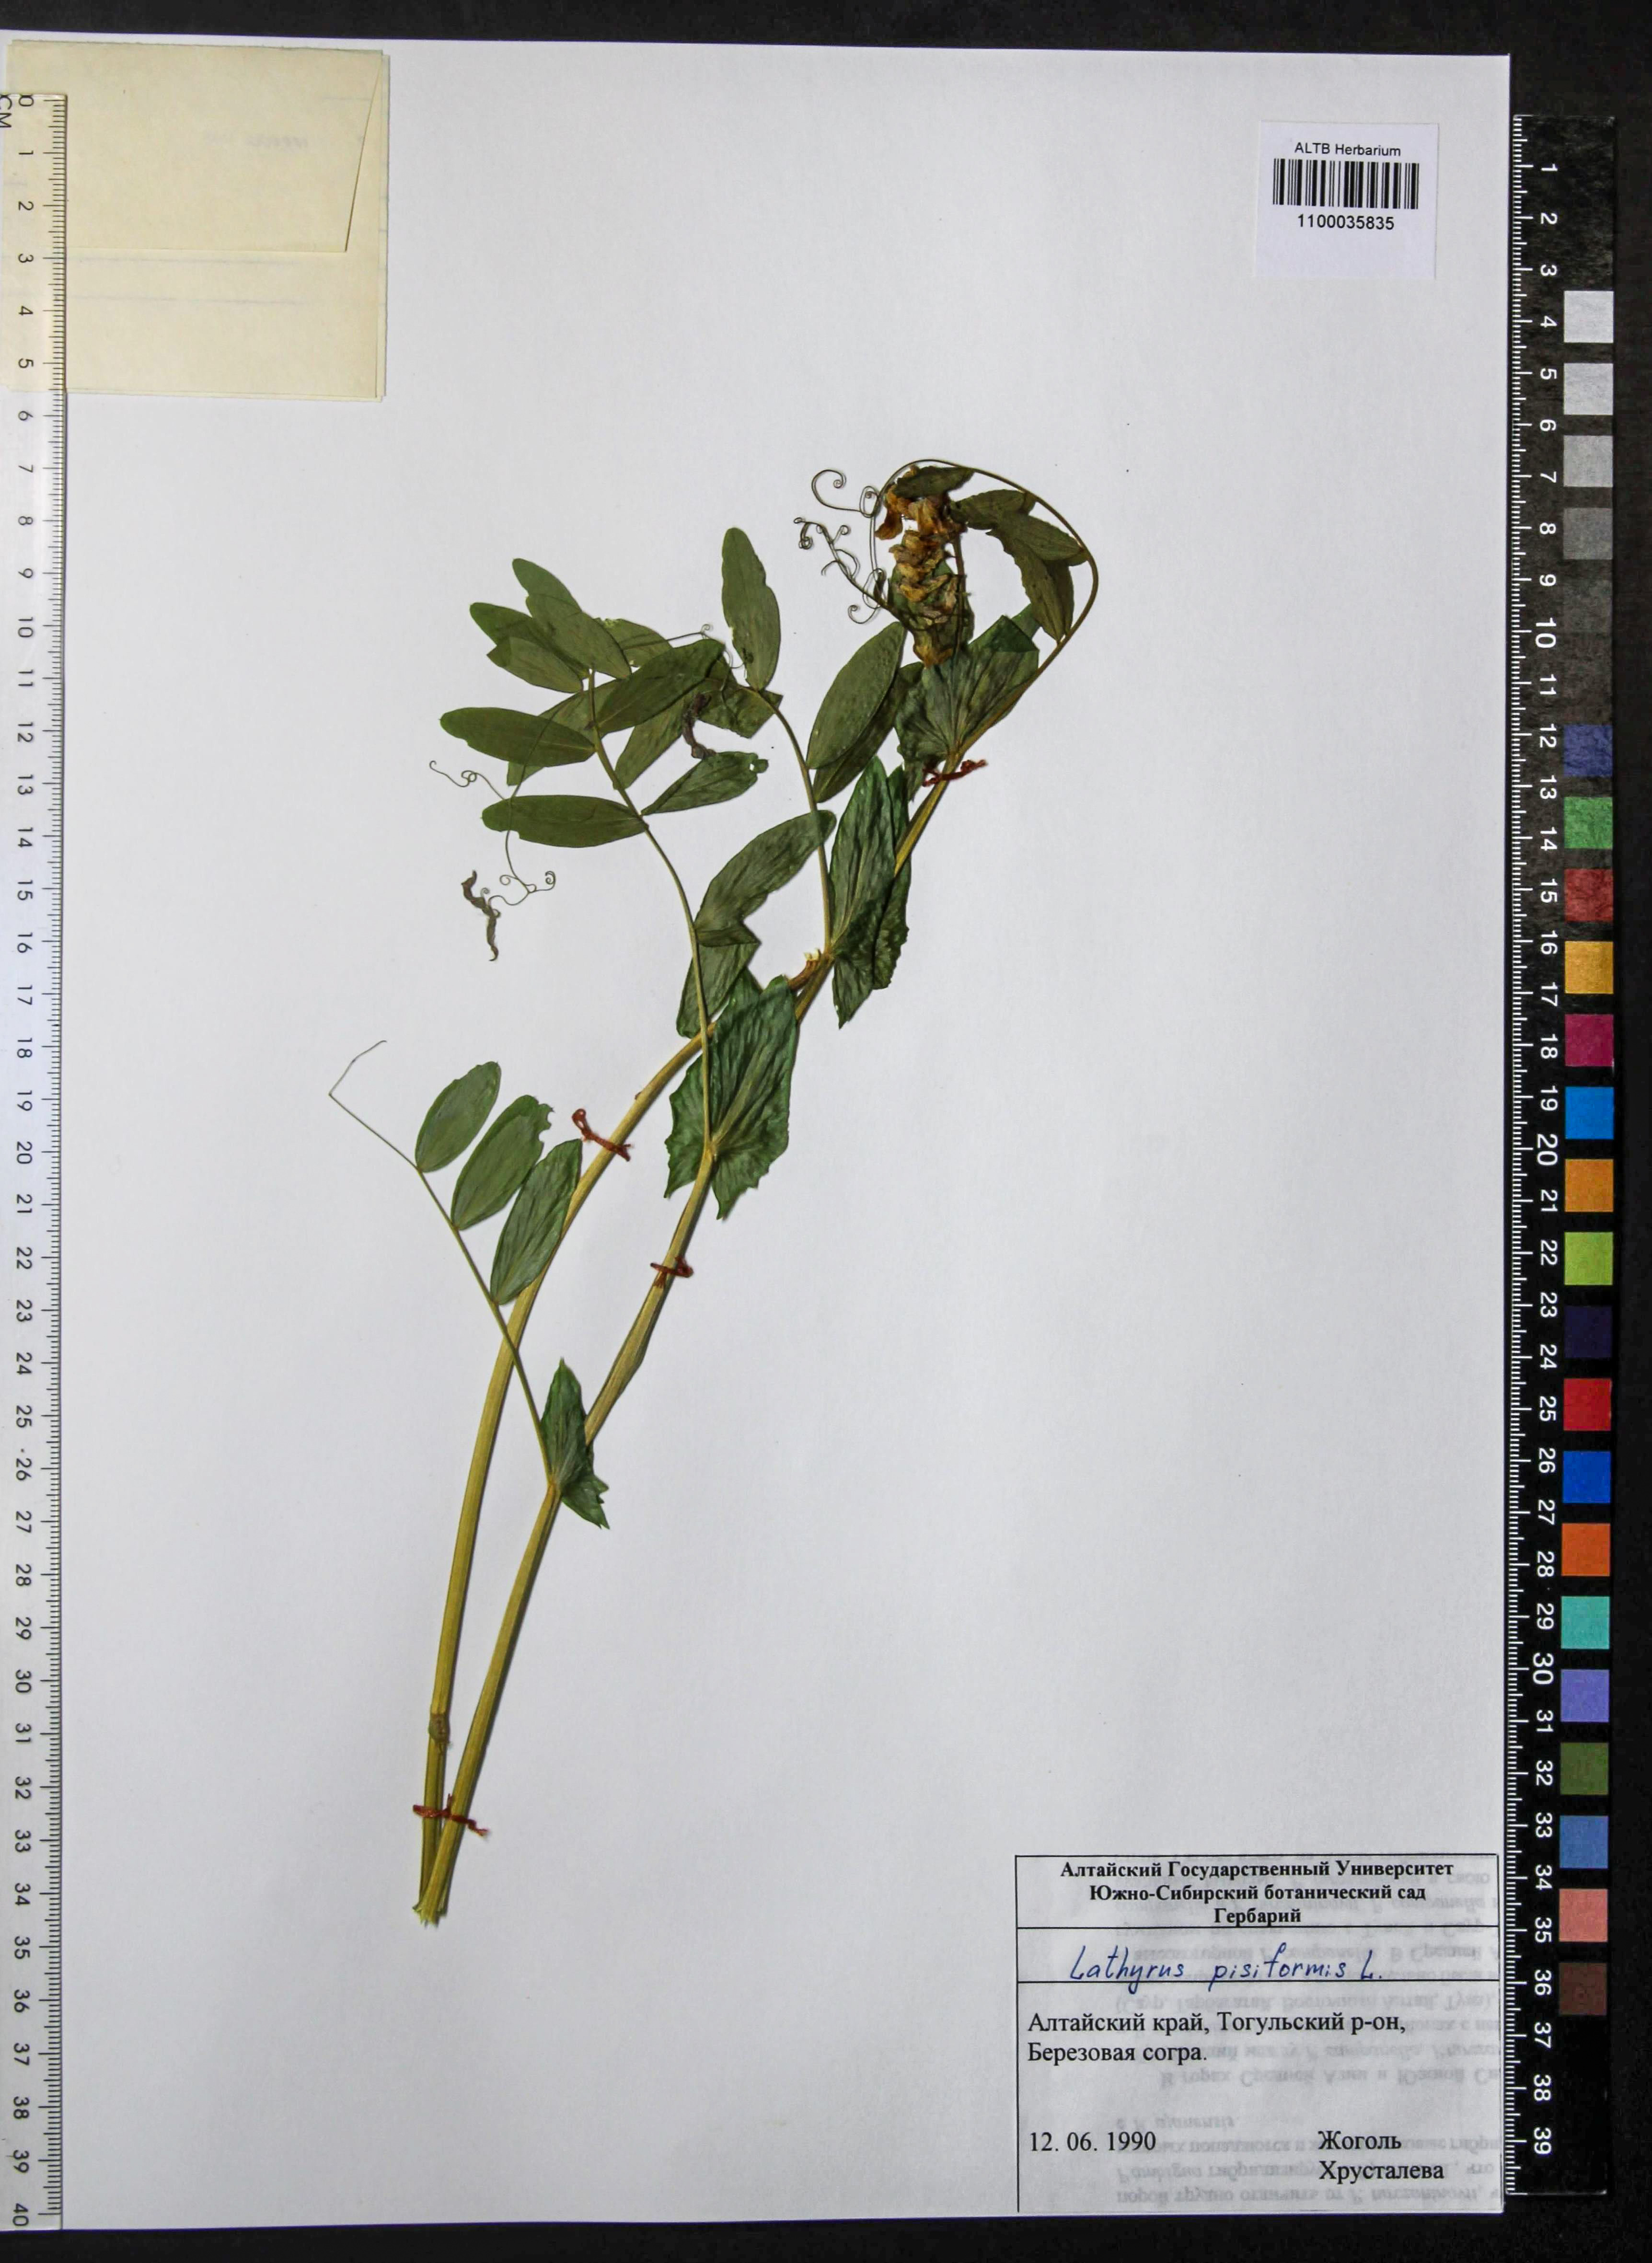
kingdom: Plantae
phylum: Tracheophyta
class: Magnoliopsida
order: Fabales
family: Fabaceae
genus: Lathyrus
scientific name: Lathyrus pisiformis
